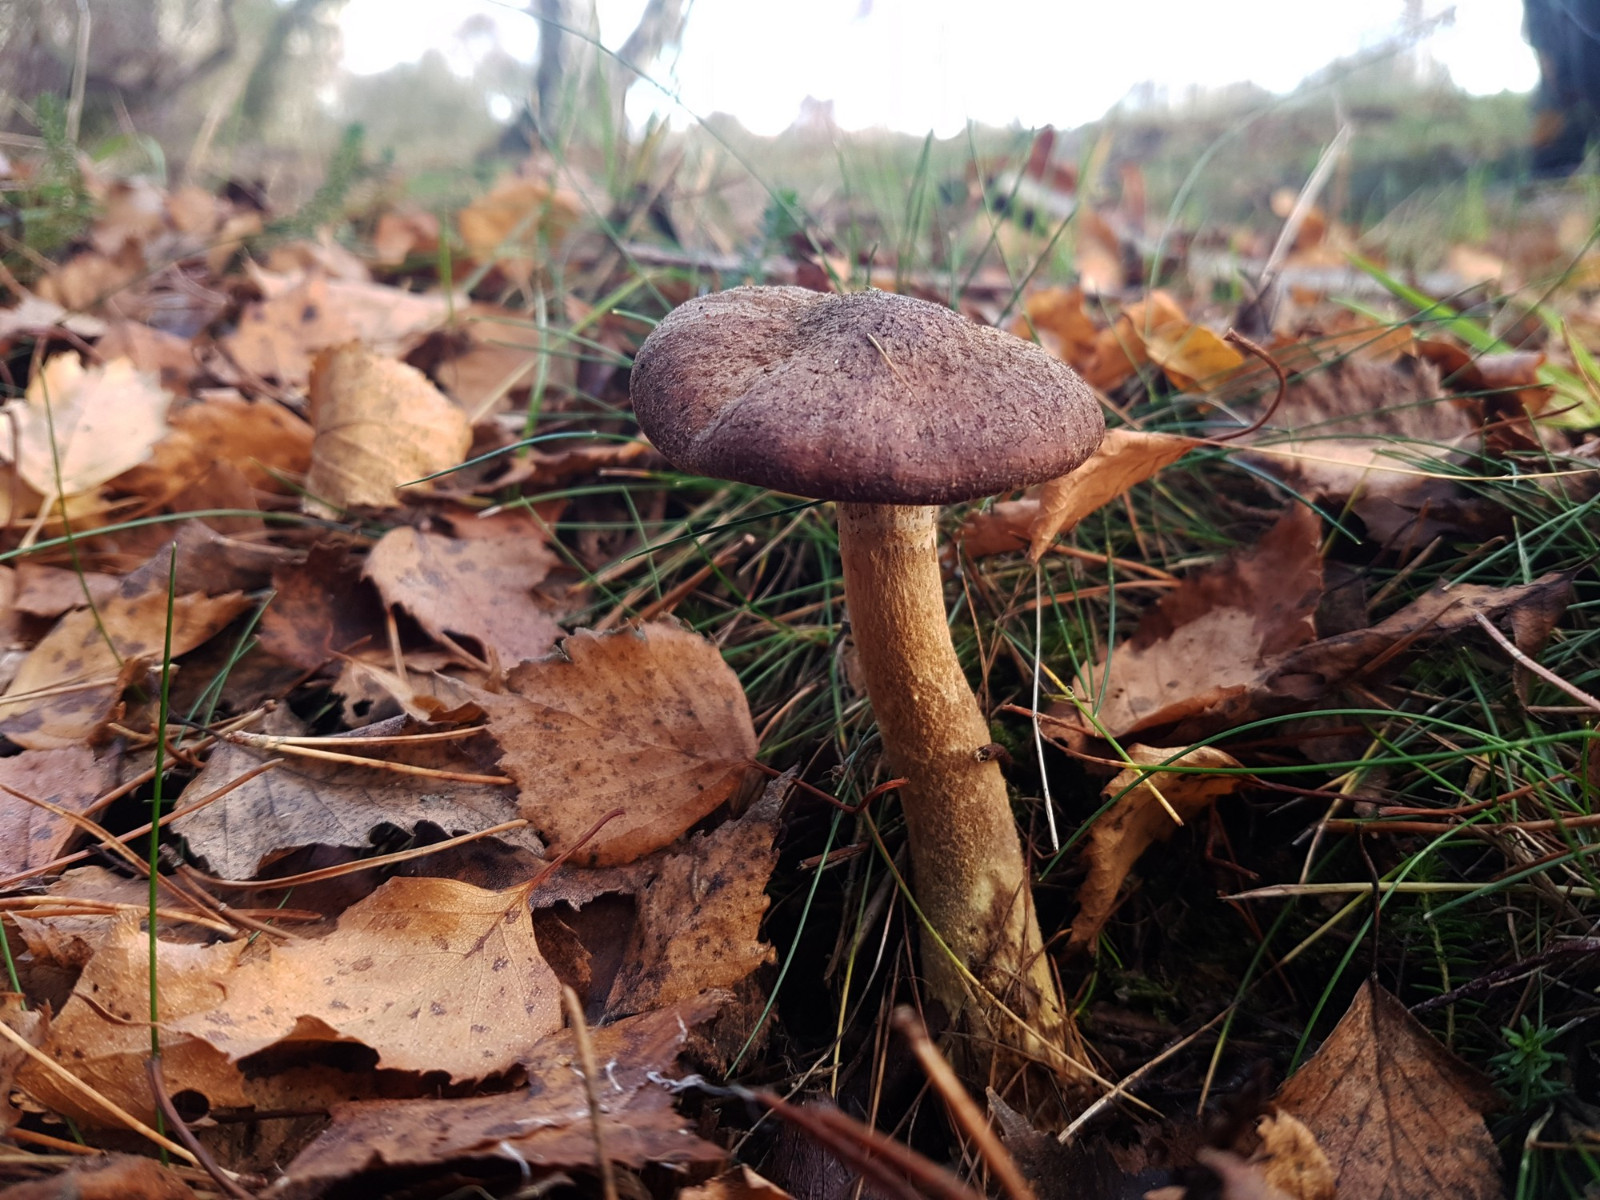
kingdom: Fungi
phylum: Basidiomycota
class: Agaricomycetes
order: Agaricales
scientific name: Agaricales
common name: champignonordenen
